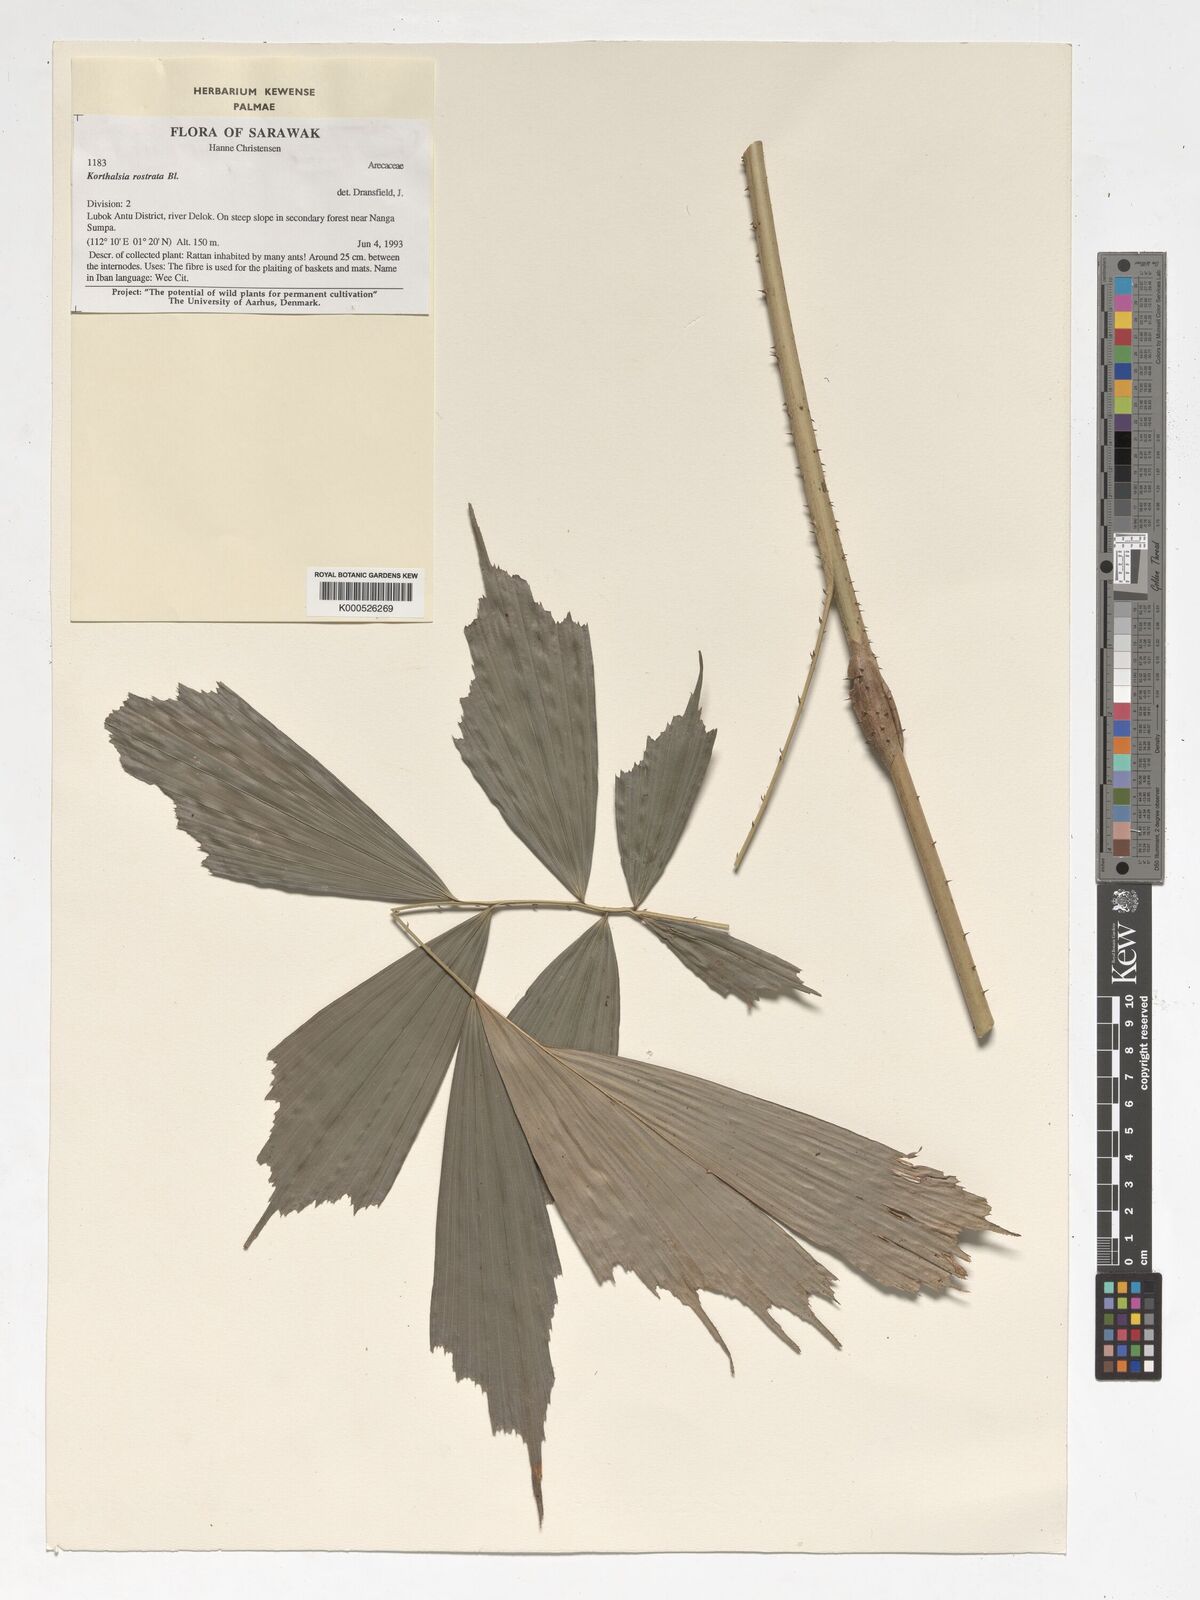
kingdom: Plantae
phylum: Tracheophyta
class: Liliopsida
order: Arecales
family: Arecaceae
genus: Korthalsia
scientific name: Korthalsia rostrata
